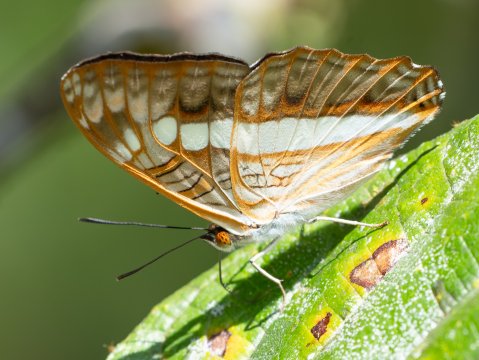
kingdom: Animalia
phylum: Arthropoda
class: Insecta
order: Lepidoptera
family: Nymphalidae
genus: Limenitis
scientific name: Limenitis alala
